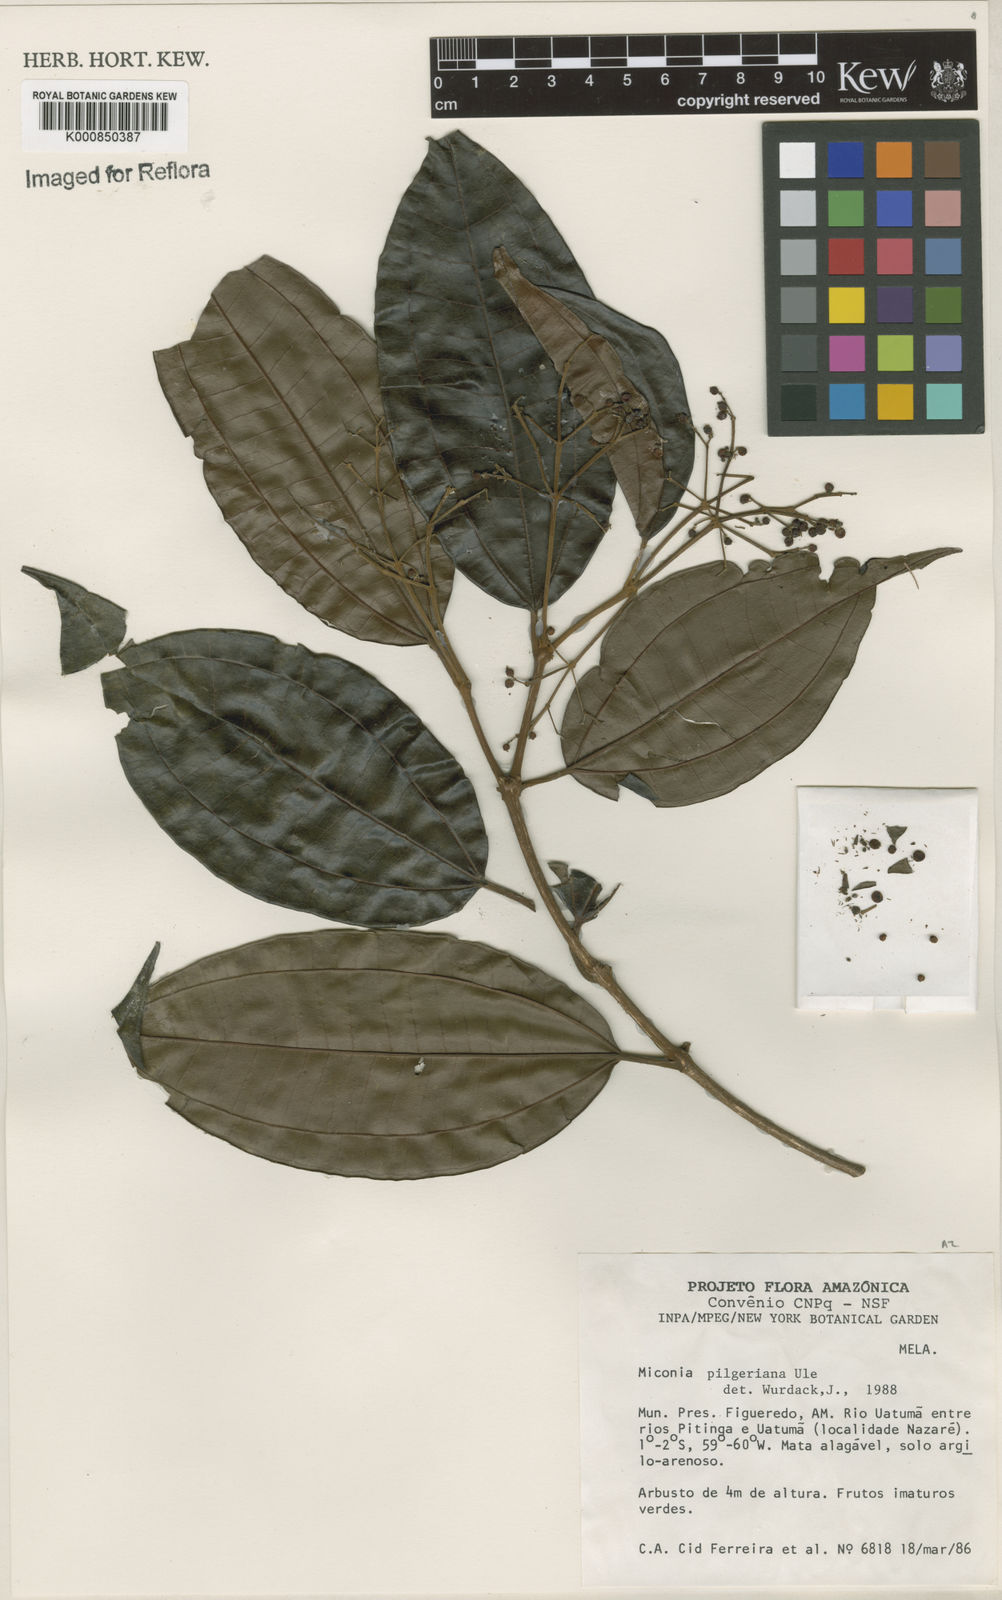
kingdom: Plantae
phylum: Tracheophyta
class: Magnoliopsida
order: Myrtales
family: Melastomataceae
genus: Miconia
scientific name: Miconia dolichorrhyncha
